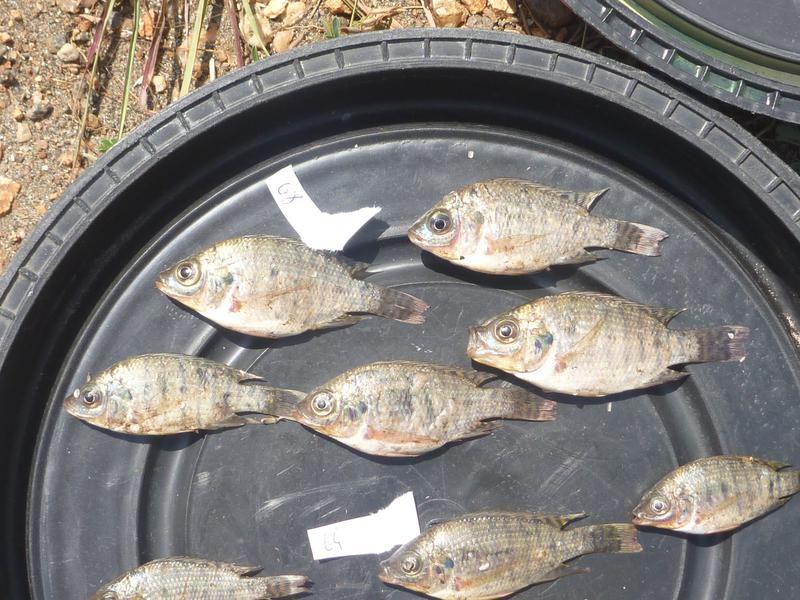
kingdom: Animalia
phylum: Chordata
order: Perciformes
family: Cichlidae
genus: Oreochromis
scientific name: Oreochromis niloticus
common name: Nile tilapia
